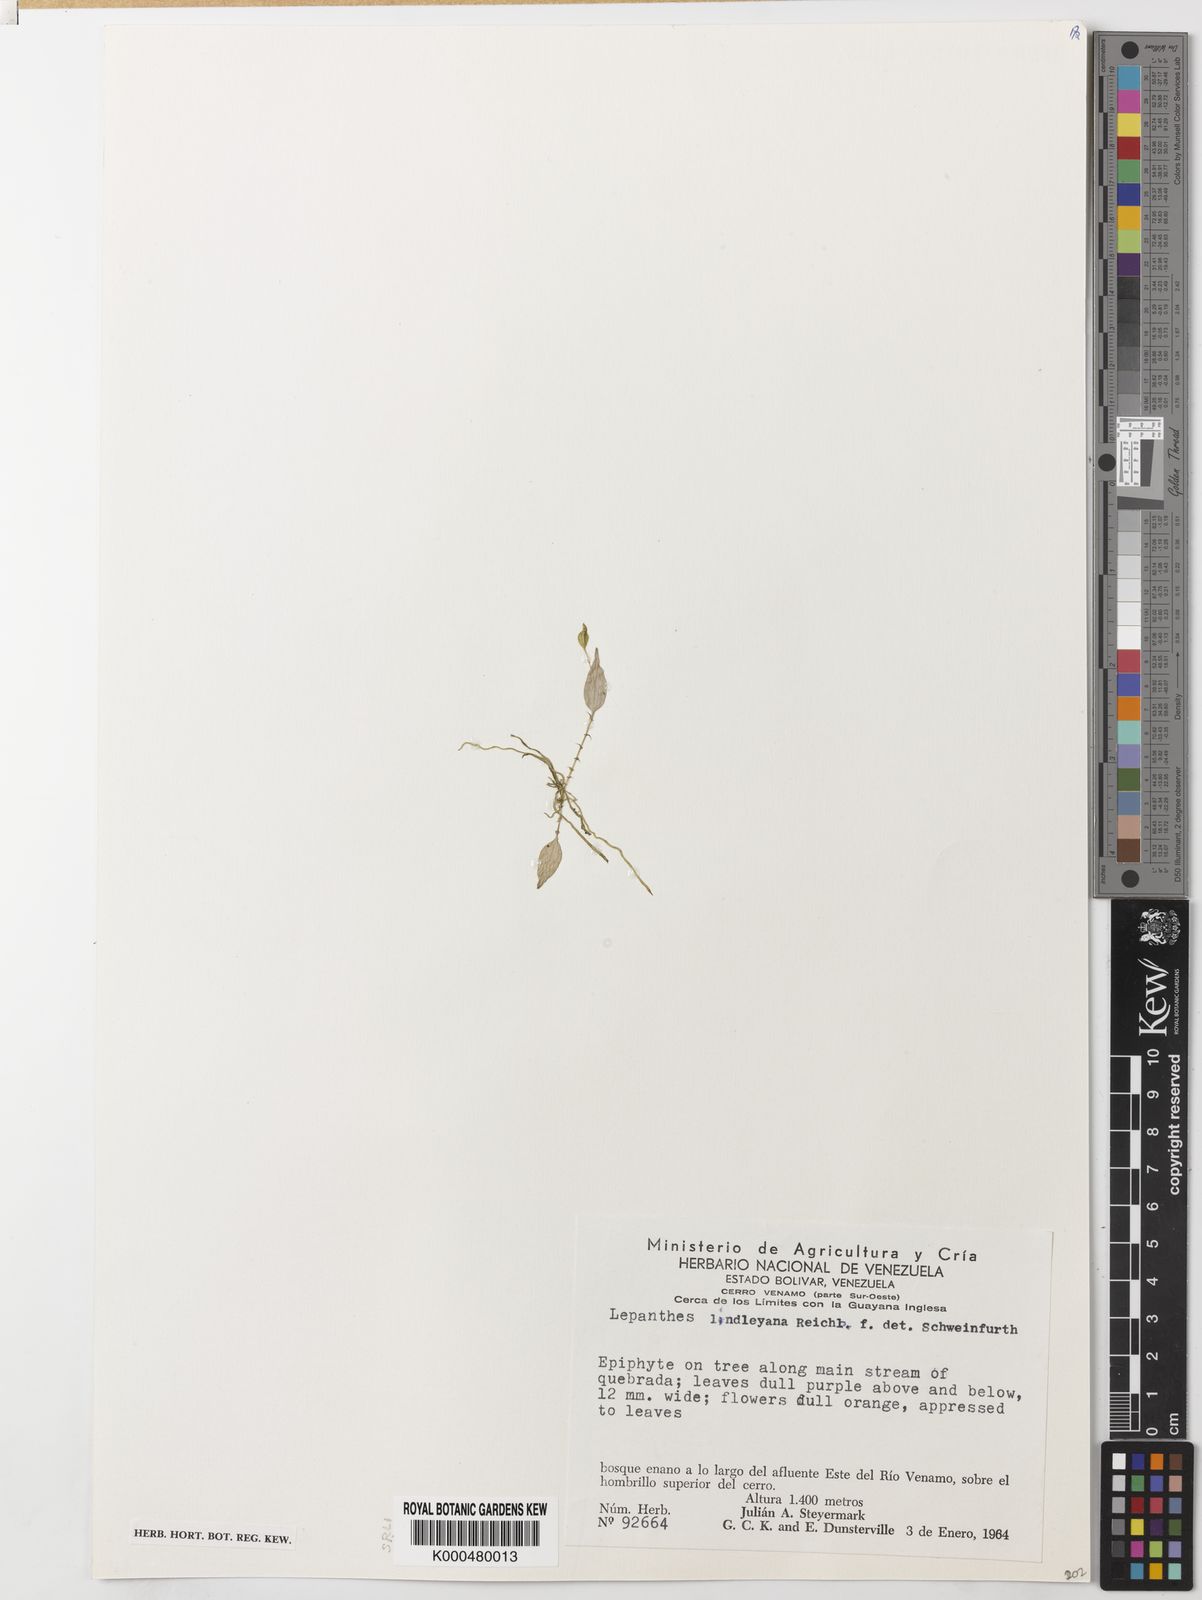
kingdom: Plantae
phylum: Tracheophyta
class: Liliopsida
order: Asparagales
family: Orchidaceae
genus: Lepanthes
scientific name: Lepanthes lindleyana
